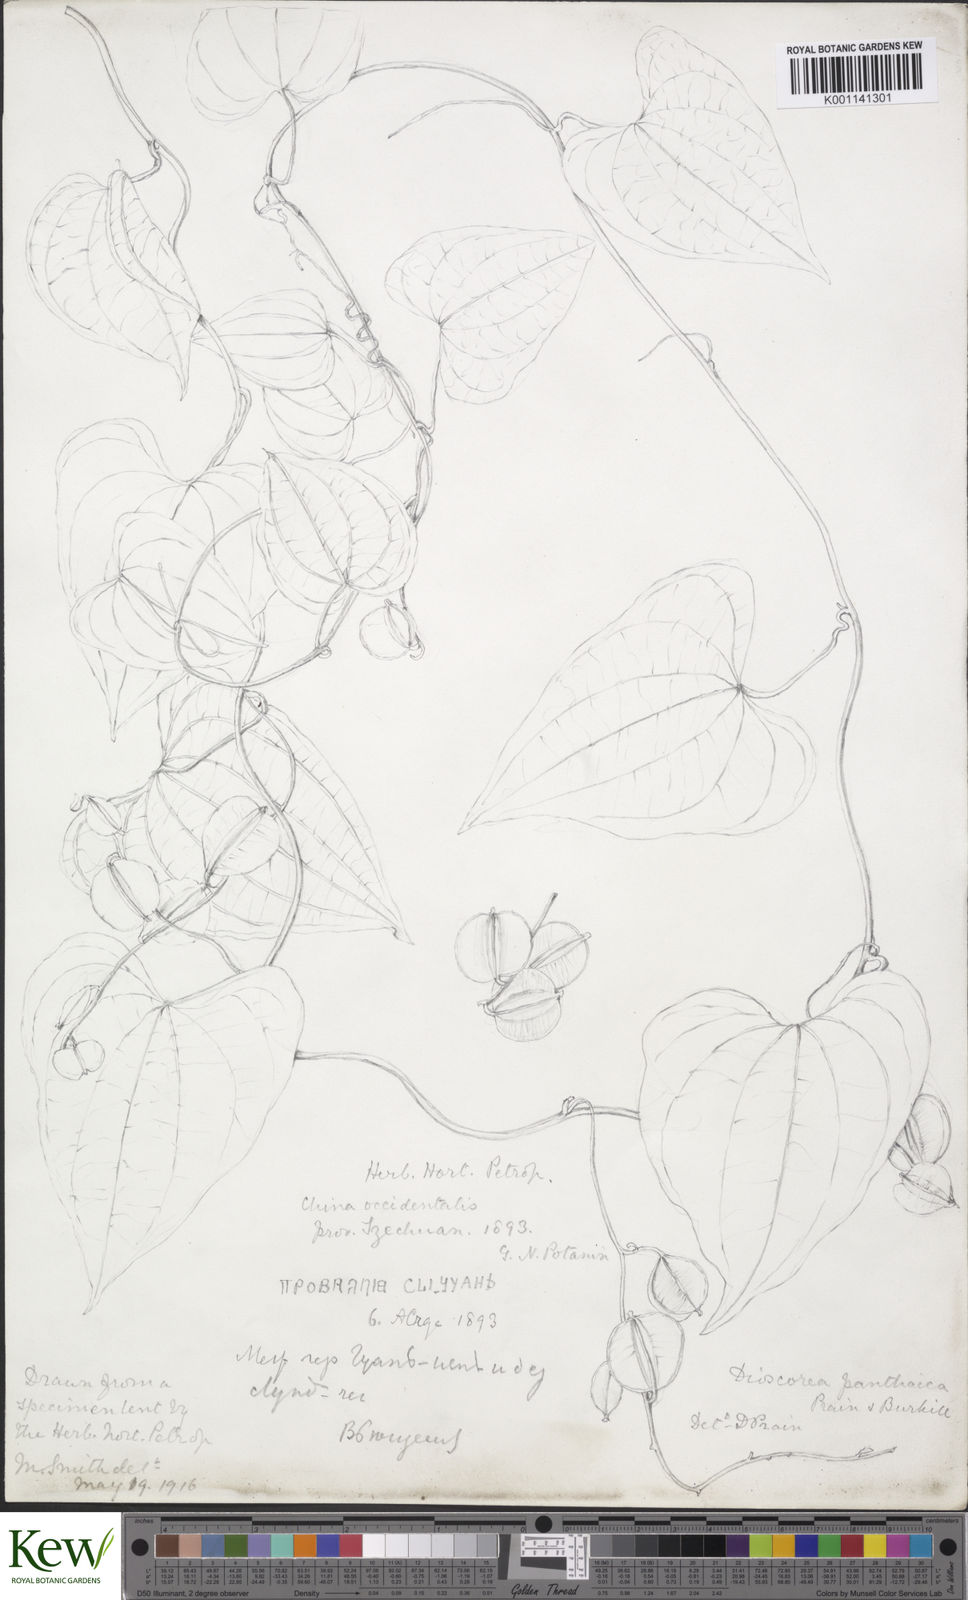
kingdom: Plantae
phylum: Tracheophyta
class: Liliopsida
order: Dioscoreales
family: Dioscoreaceae
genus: Dioscorea
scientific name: Dioscorea zingiberensis
